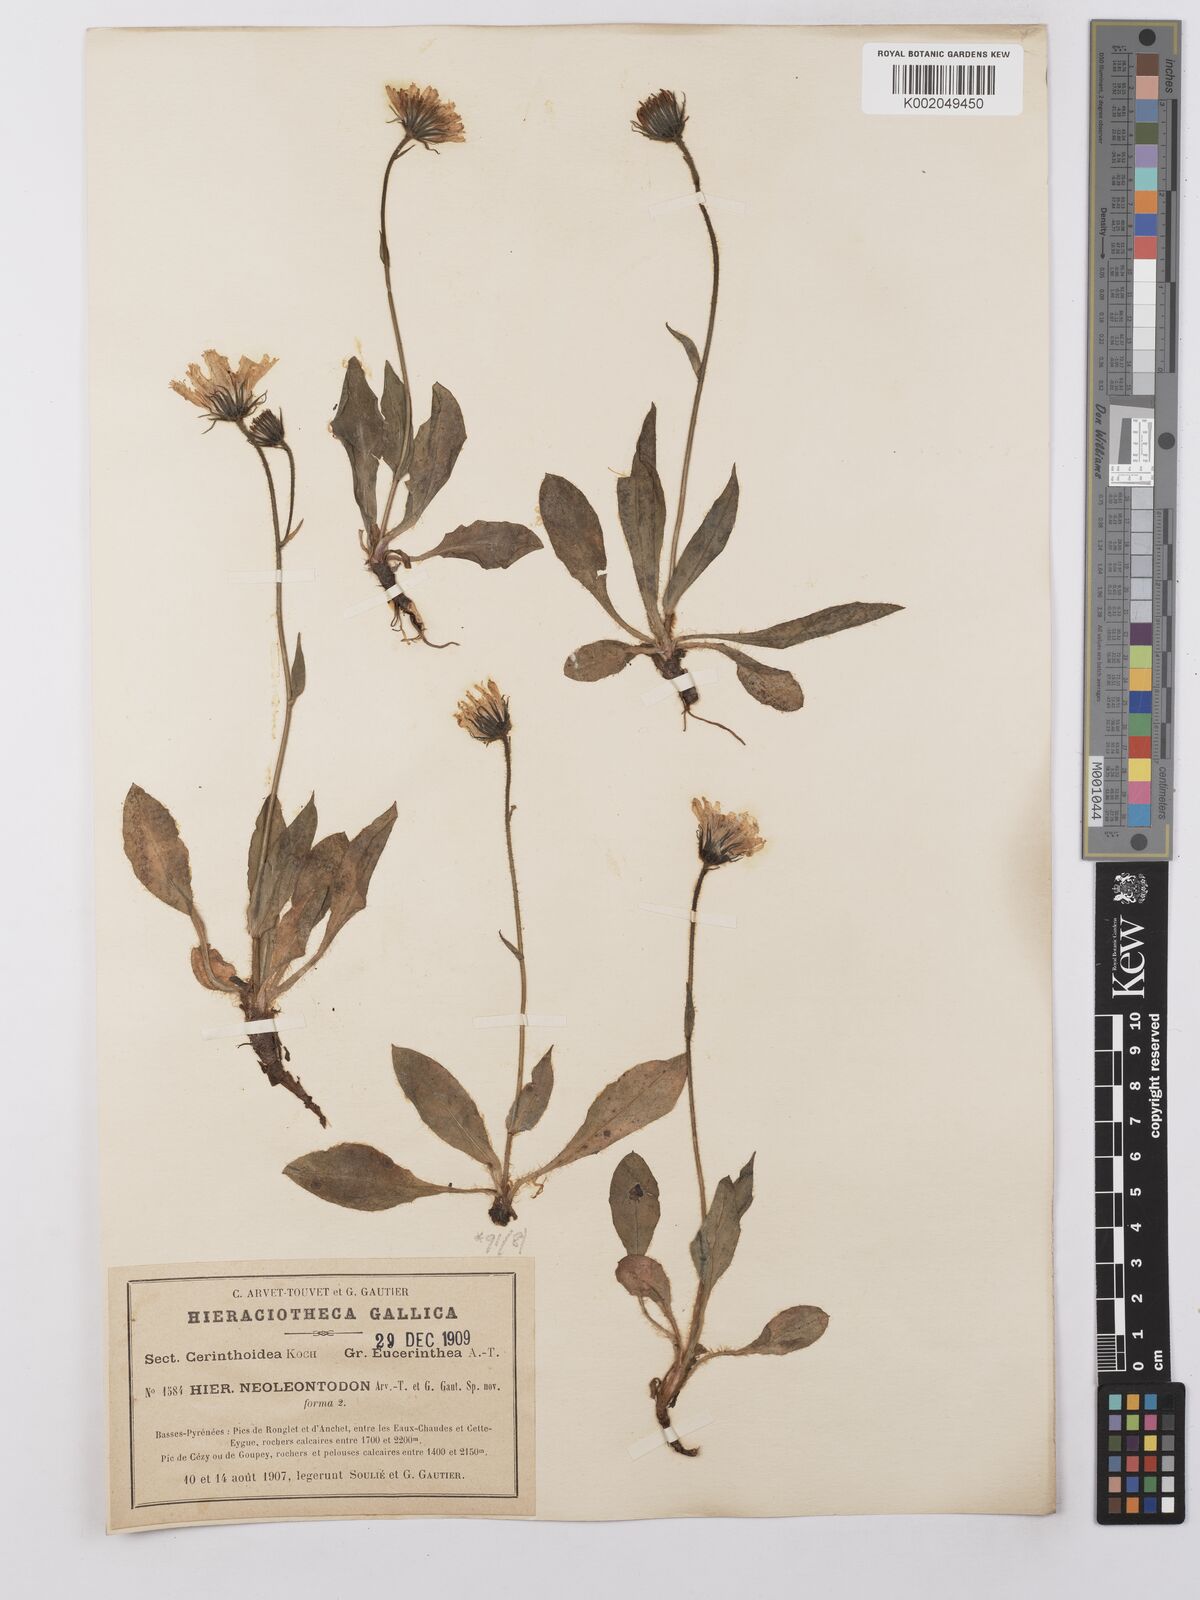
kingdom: Plantae
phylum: Tracheophyta
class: Magnoliopsida
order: Asterales
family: Asteraceae
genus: Hieracium
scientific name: Hieracium ramondii
